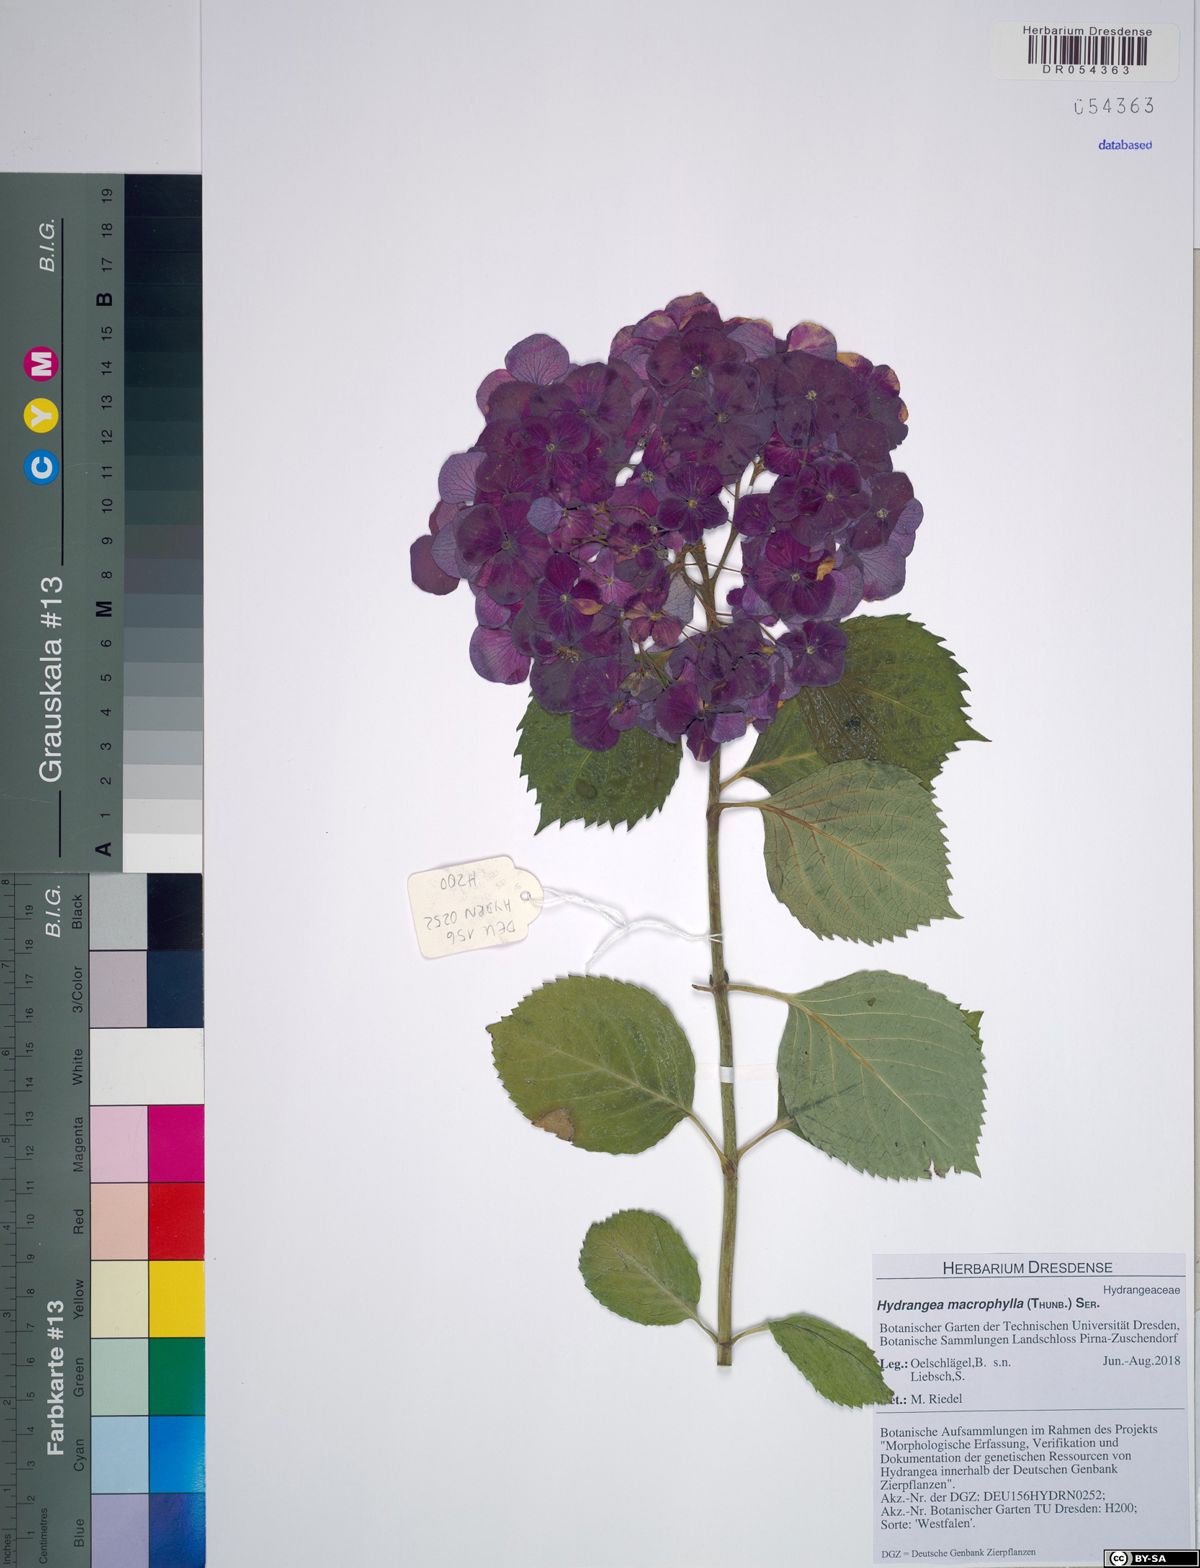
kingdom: Plantae
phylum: Tracheophyta
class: Magnoliopsida
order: Cornales
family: Hydrangeaceae
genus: Hydrangea
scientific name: Hydrangea macrophylla
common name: Hydrangea
